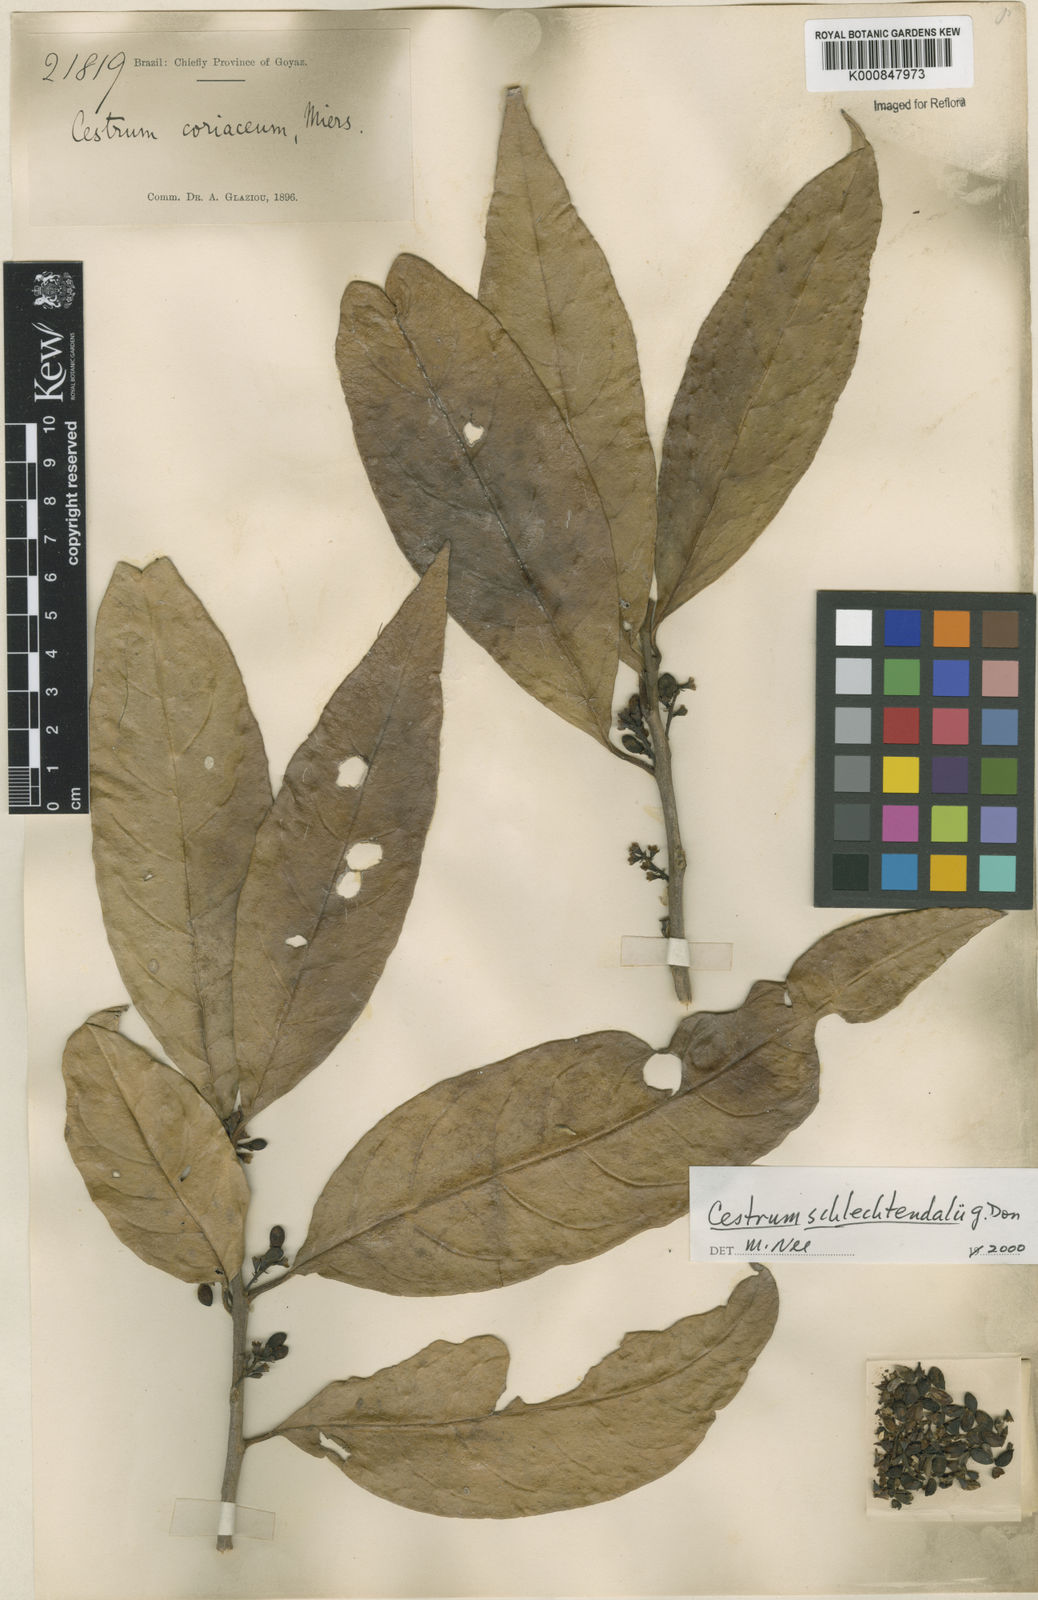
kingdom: Plantae
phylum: Tracheophyta
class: Magnoliopsida
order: Solanales
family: Solanaceae
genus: Cestrum
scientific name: Cestrum schlechtendalii
